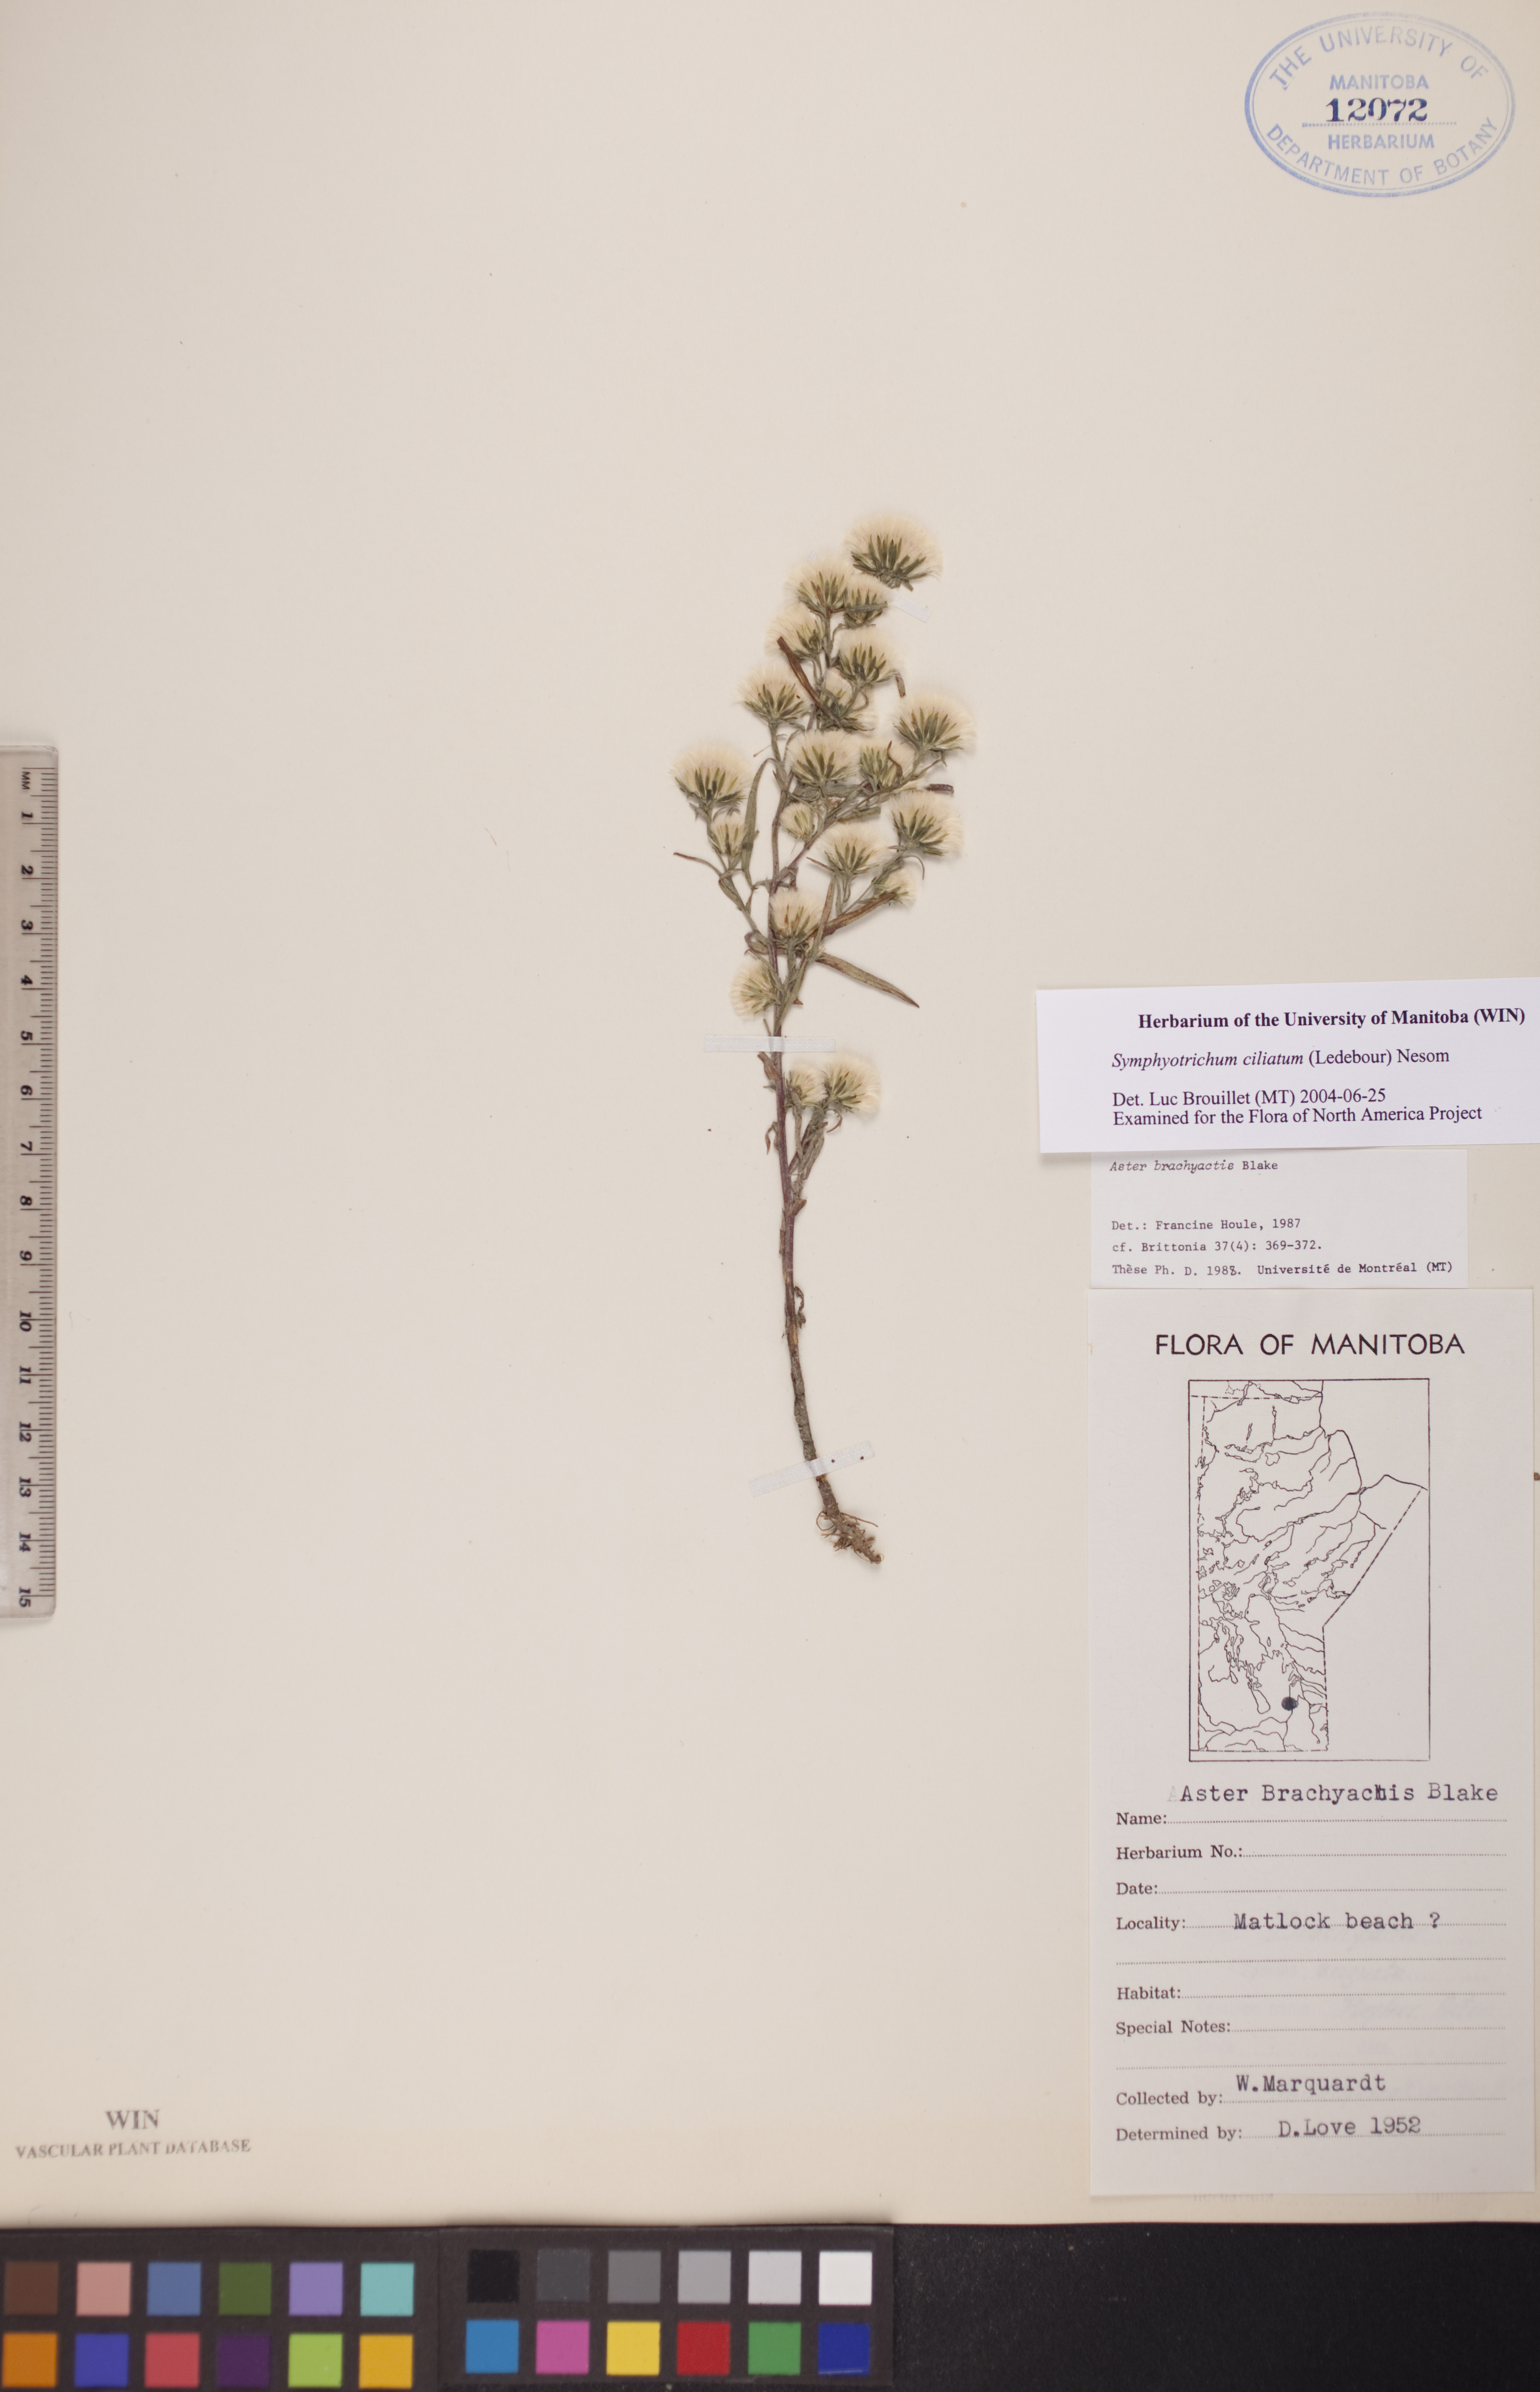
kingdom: Plantae
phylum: Tracheophyta
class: Magnoliopsida
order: Asterales
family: Asteraceae
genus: Symphyotrichum
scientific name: Symphyotrichum ciliatum
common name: Rayless annual aster
